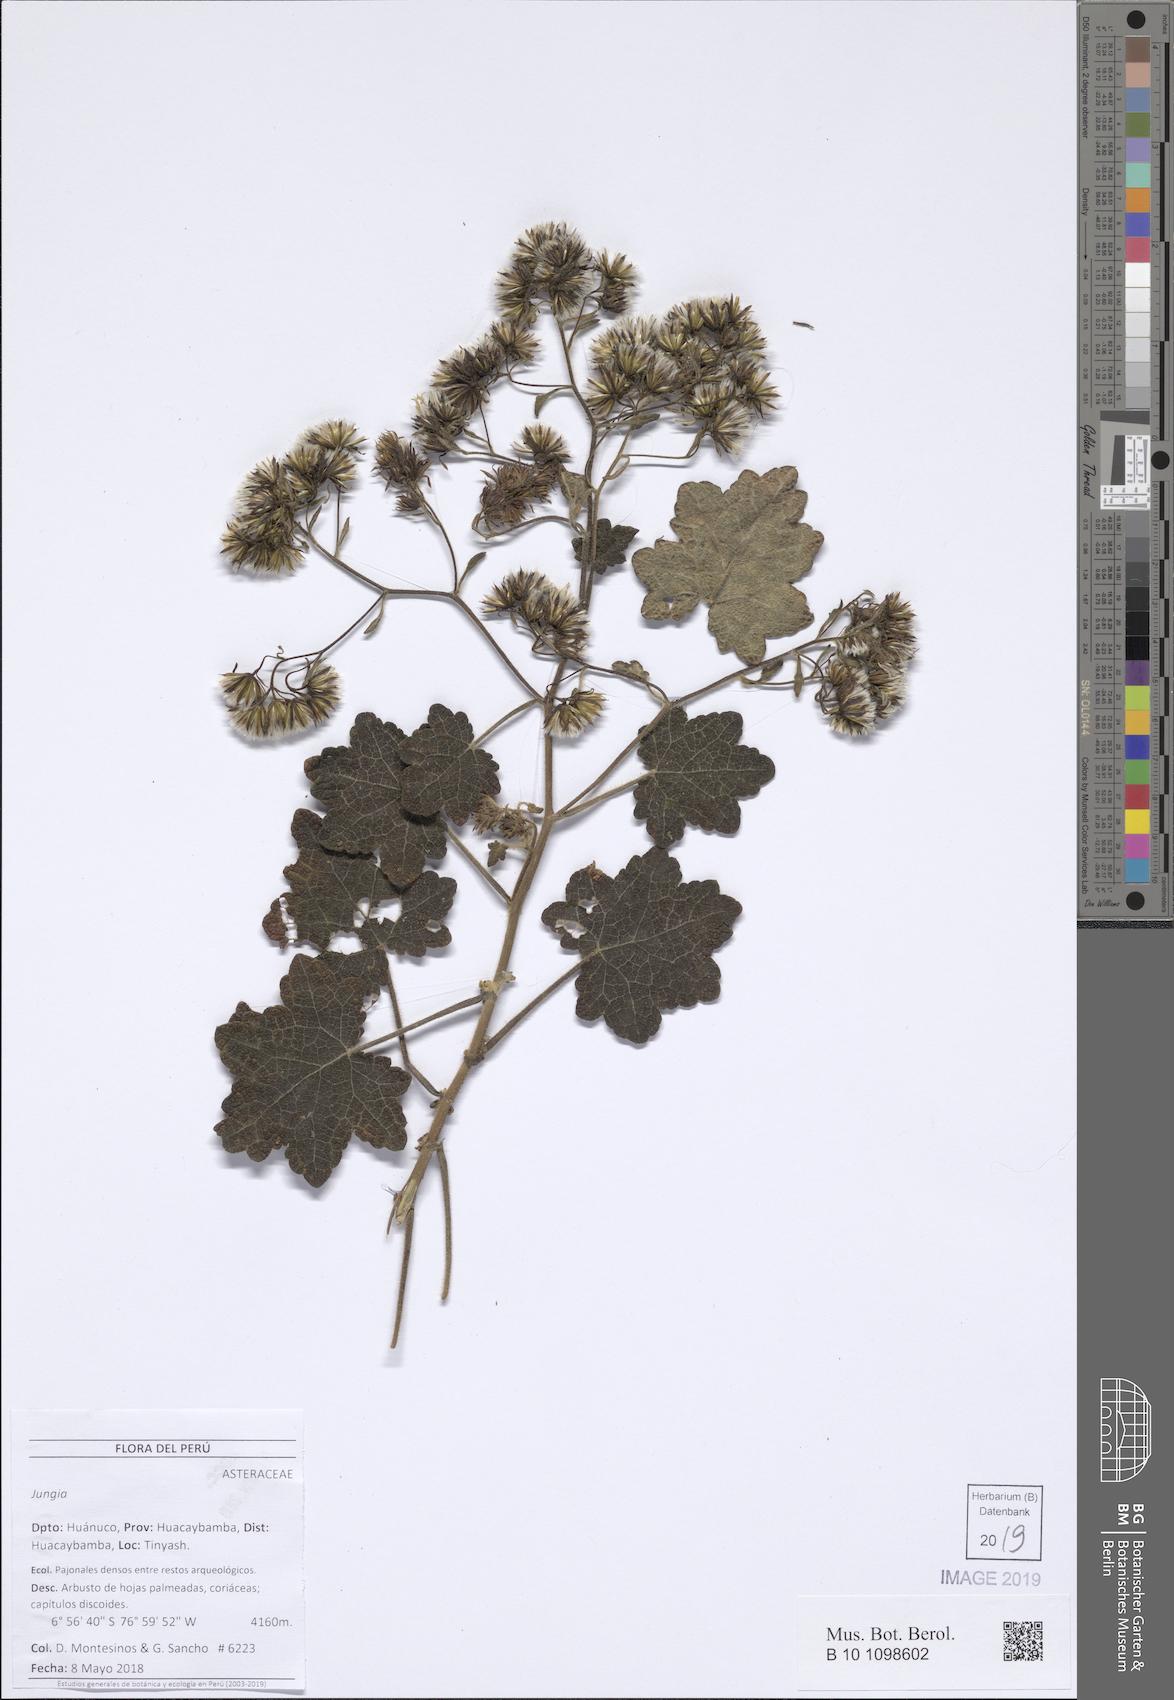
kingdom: Plantae
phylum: Tracheophyta
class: Magnoliopsida
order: Asterales
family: Asteraceae
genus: Jungia
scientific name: Jungia
